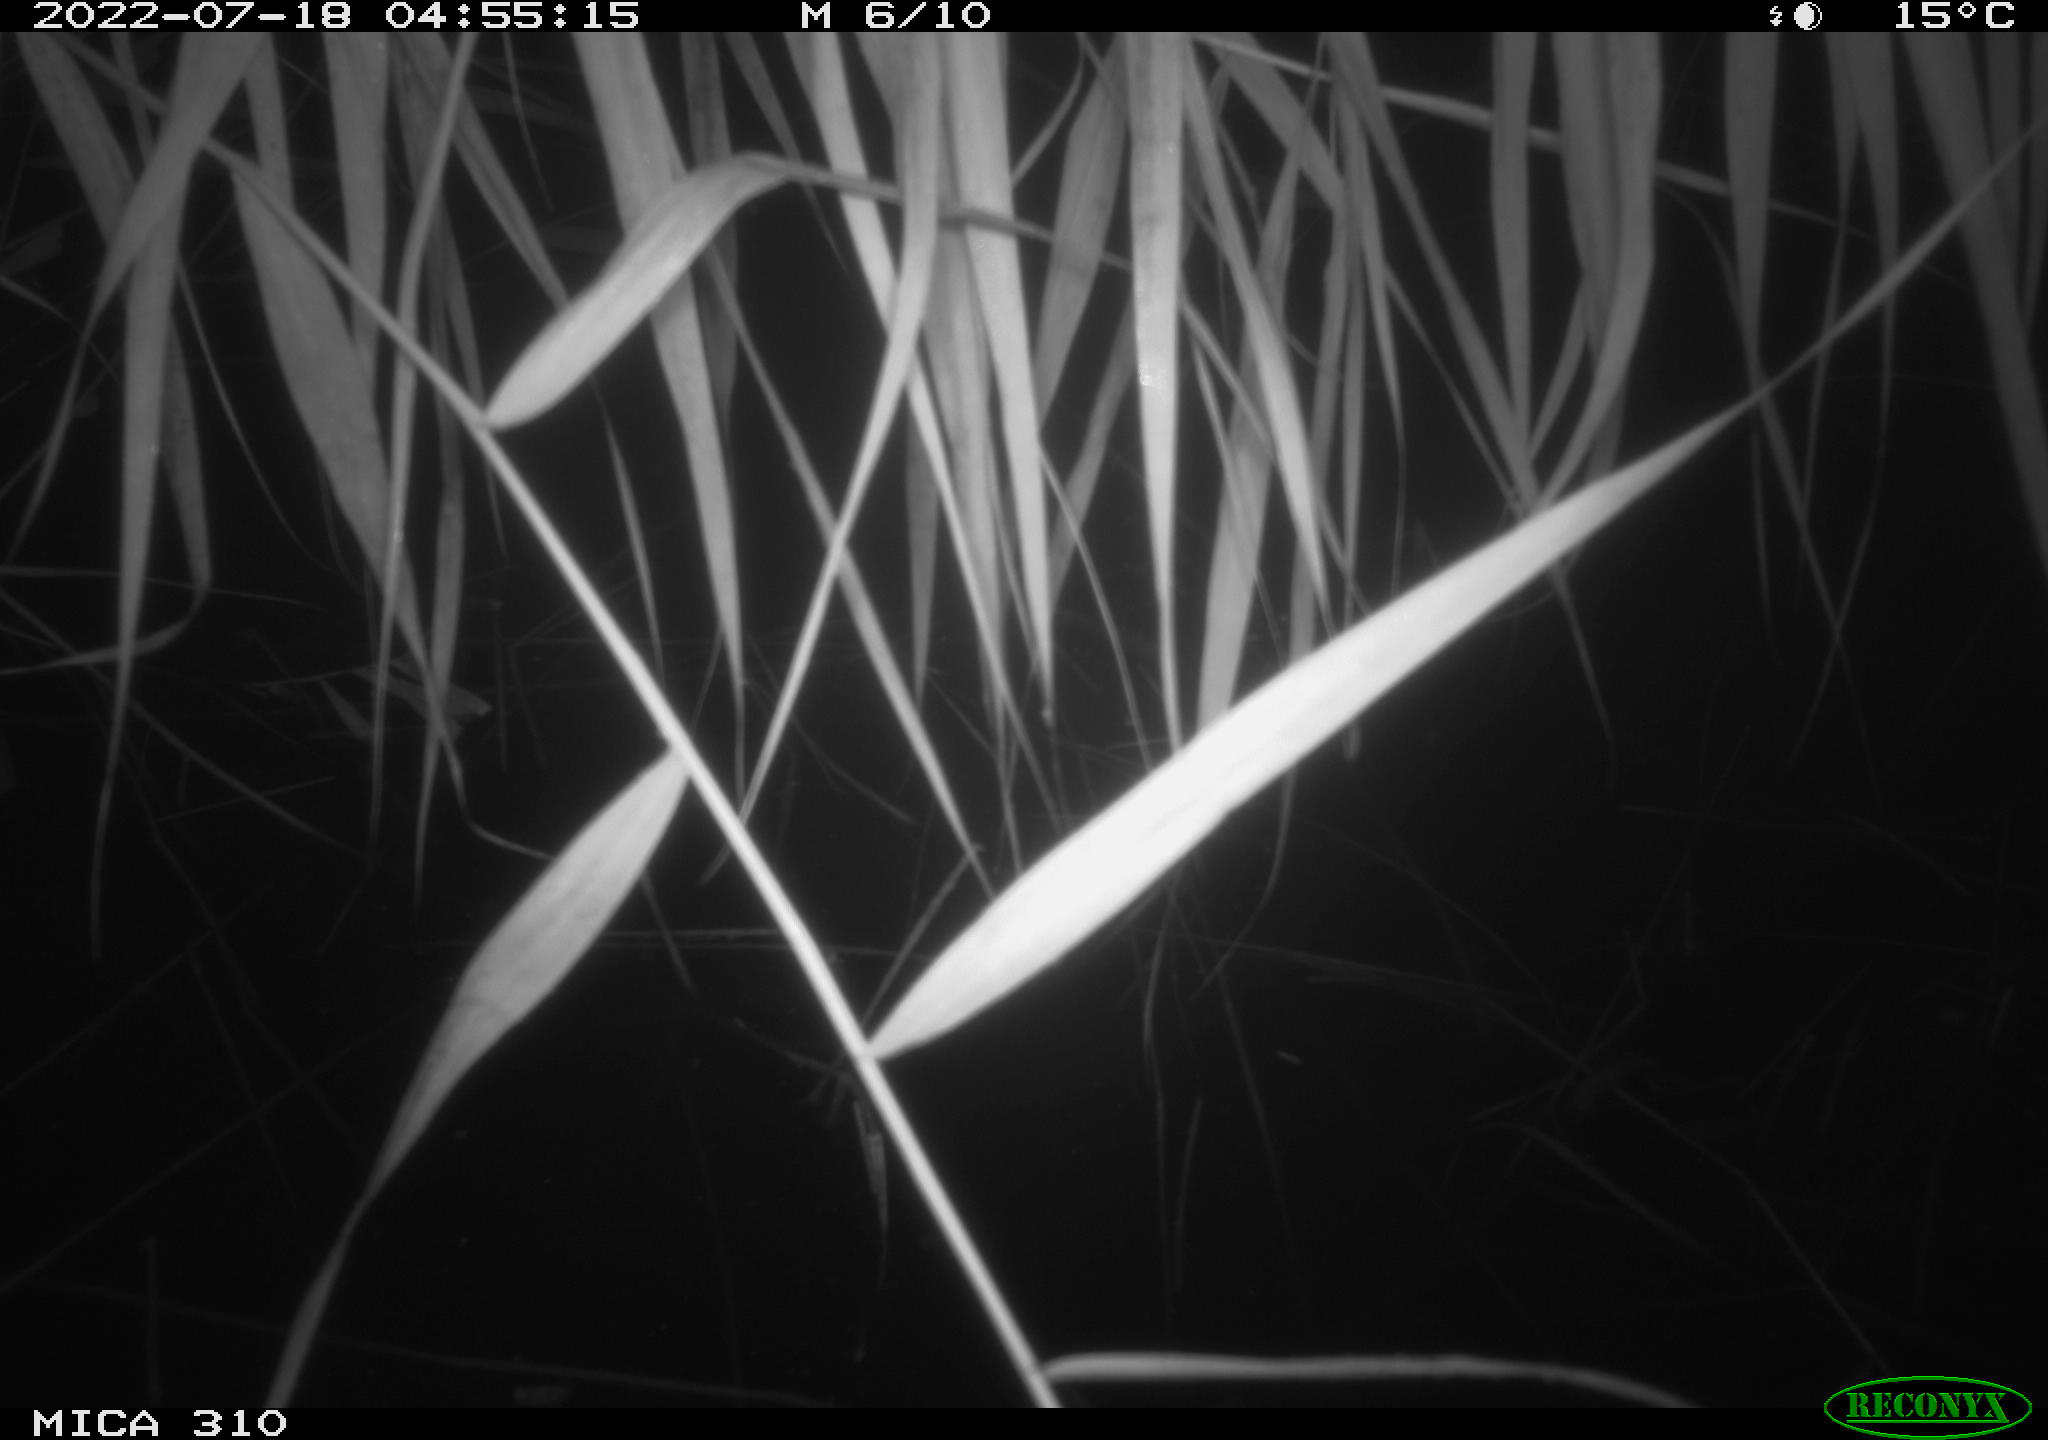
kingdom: Animalia
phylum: Chordata
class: Aves
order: Anseriformes
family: Anatidae
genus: Anas
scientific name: Anas platyrhynchos
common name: Mallard
